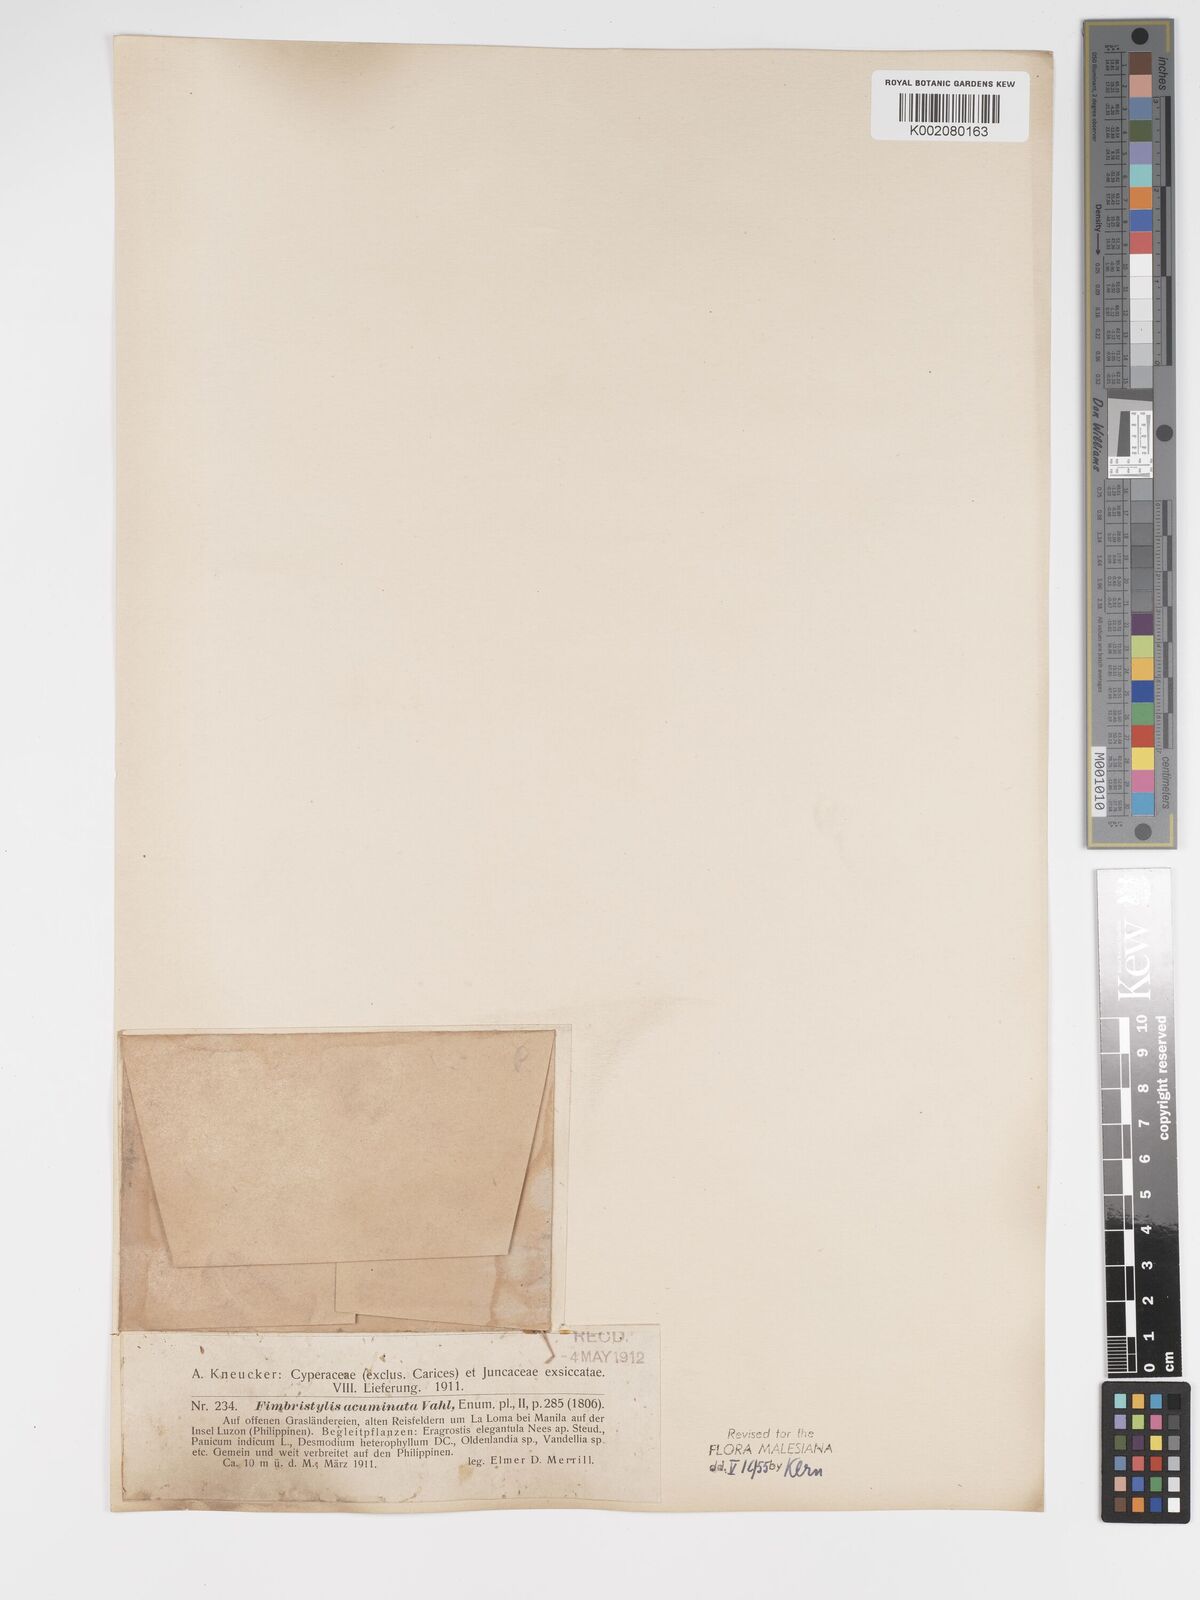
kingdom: Plantae
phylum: Tracheophyta
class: Liliopsida
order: Poales
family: Cyperaceae
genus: Fimbristylis
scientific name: Fimbristylis acuminata
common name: Pointed fimbristylis
